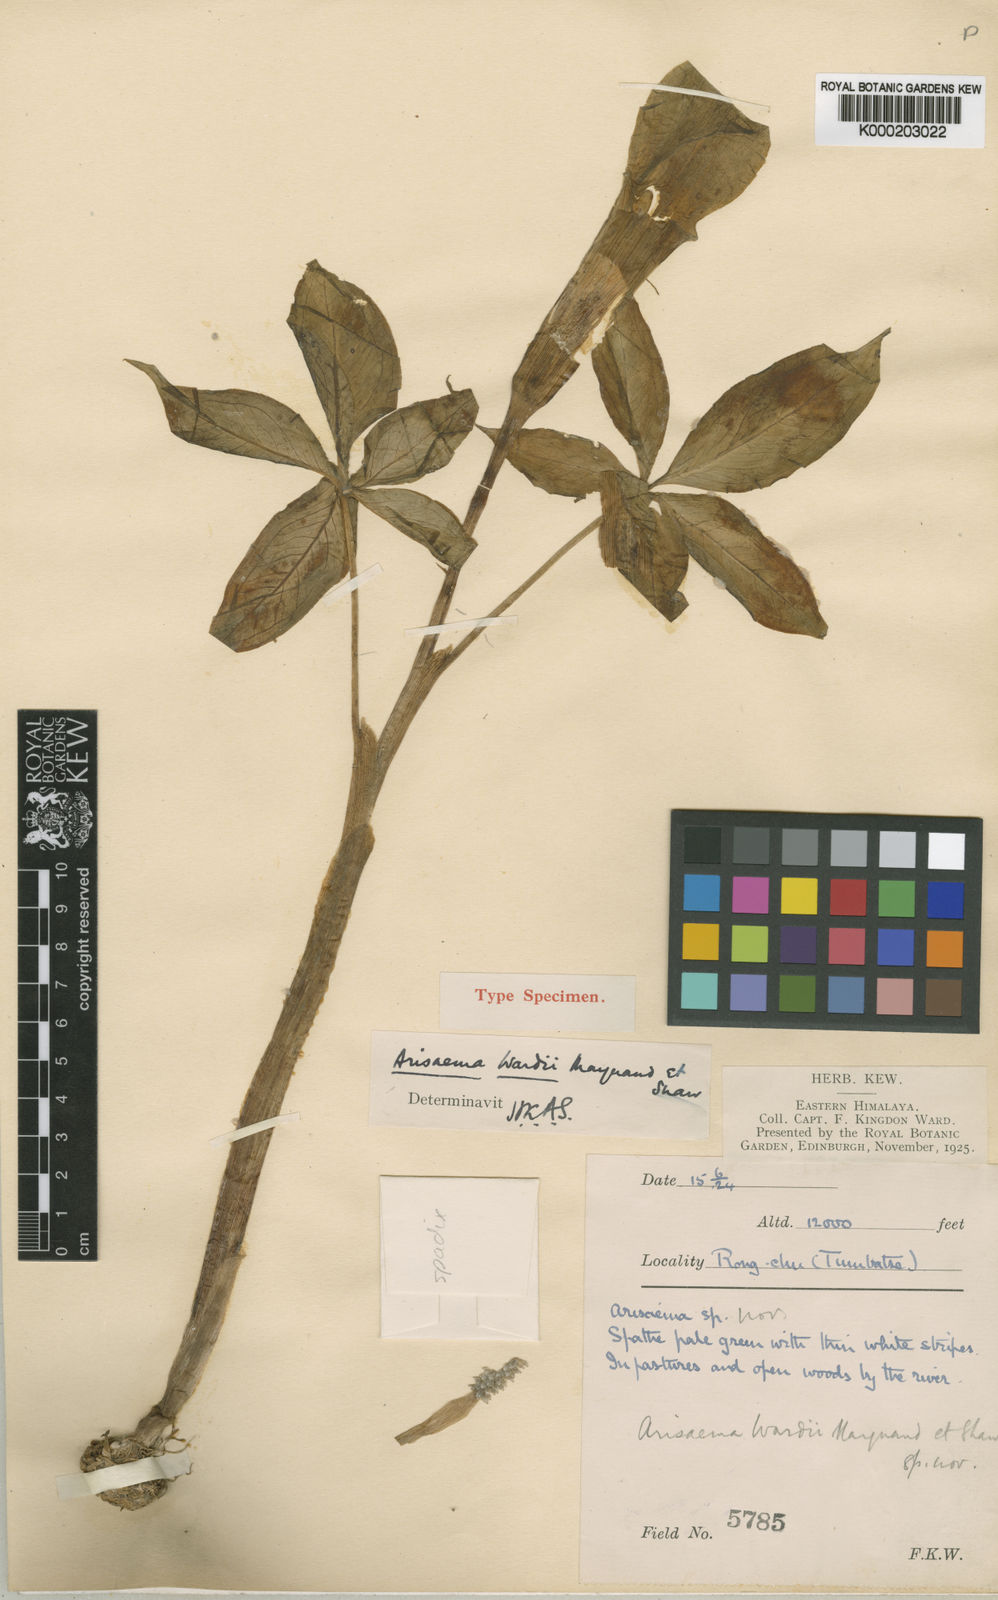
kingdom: Plantae
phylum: Tracheophyta
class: Liliopsida
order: Alismatales
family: Araceae
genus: Arisaema
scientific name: Arisaema wardii
